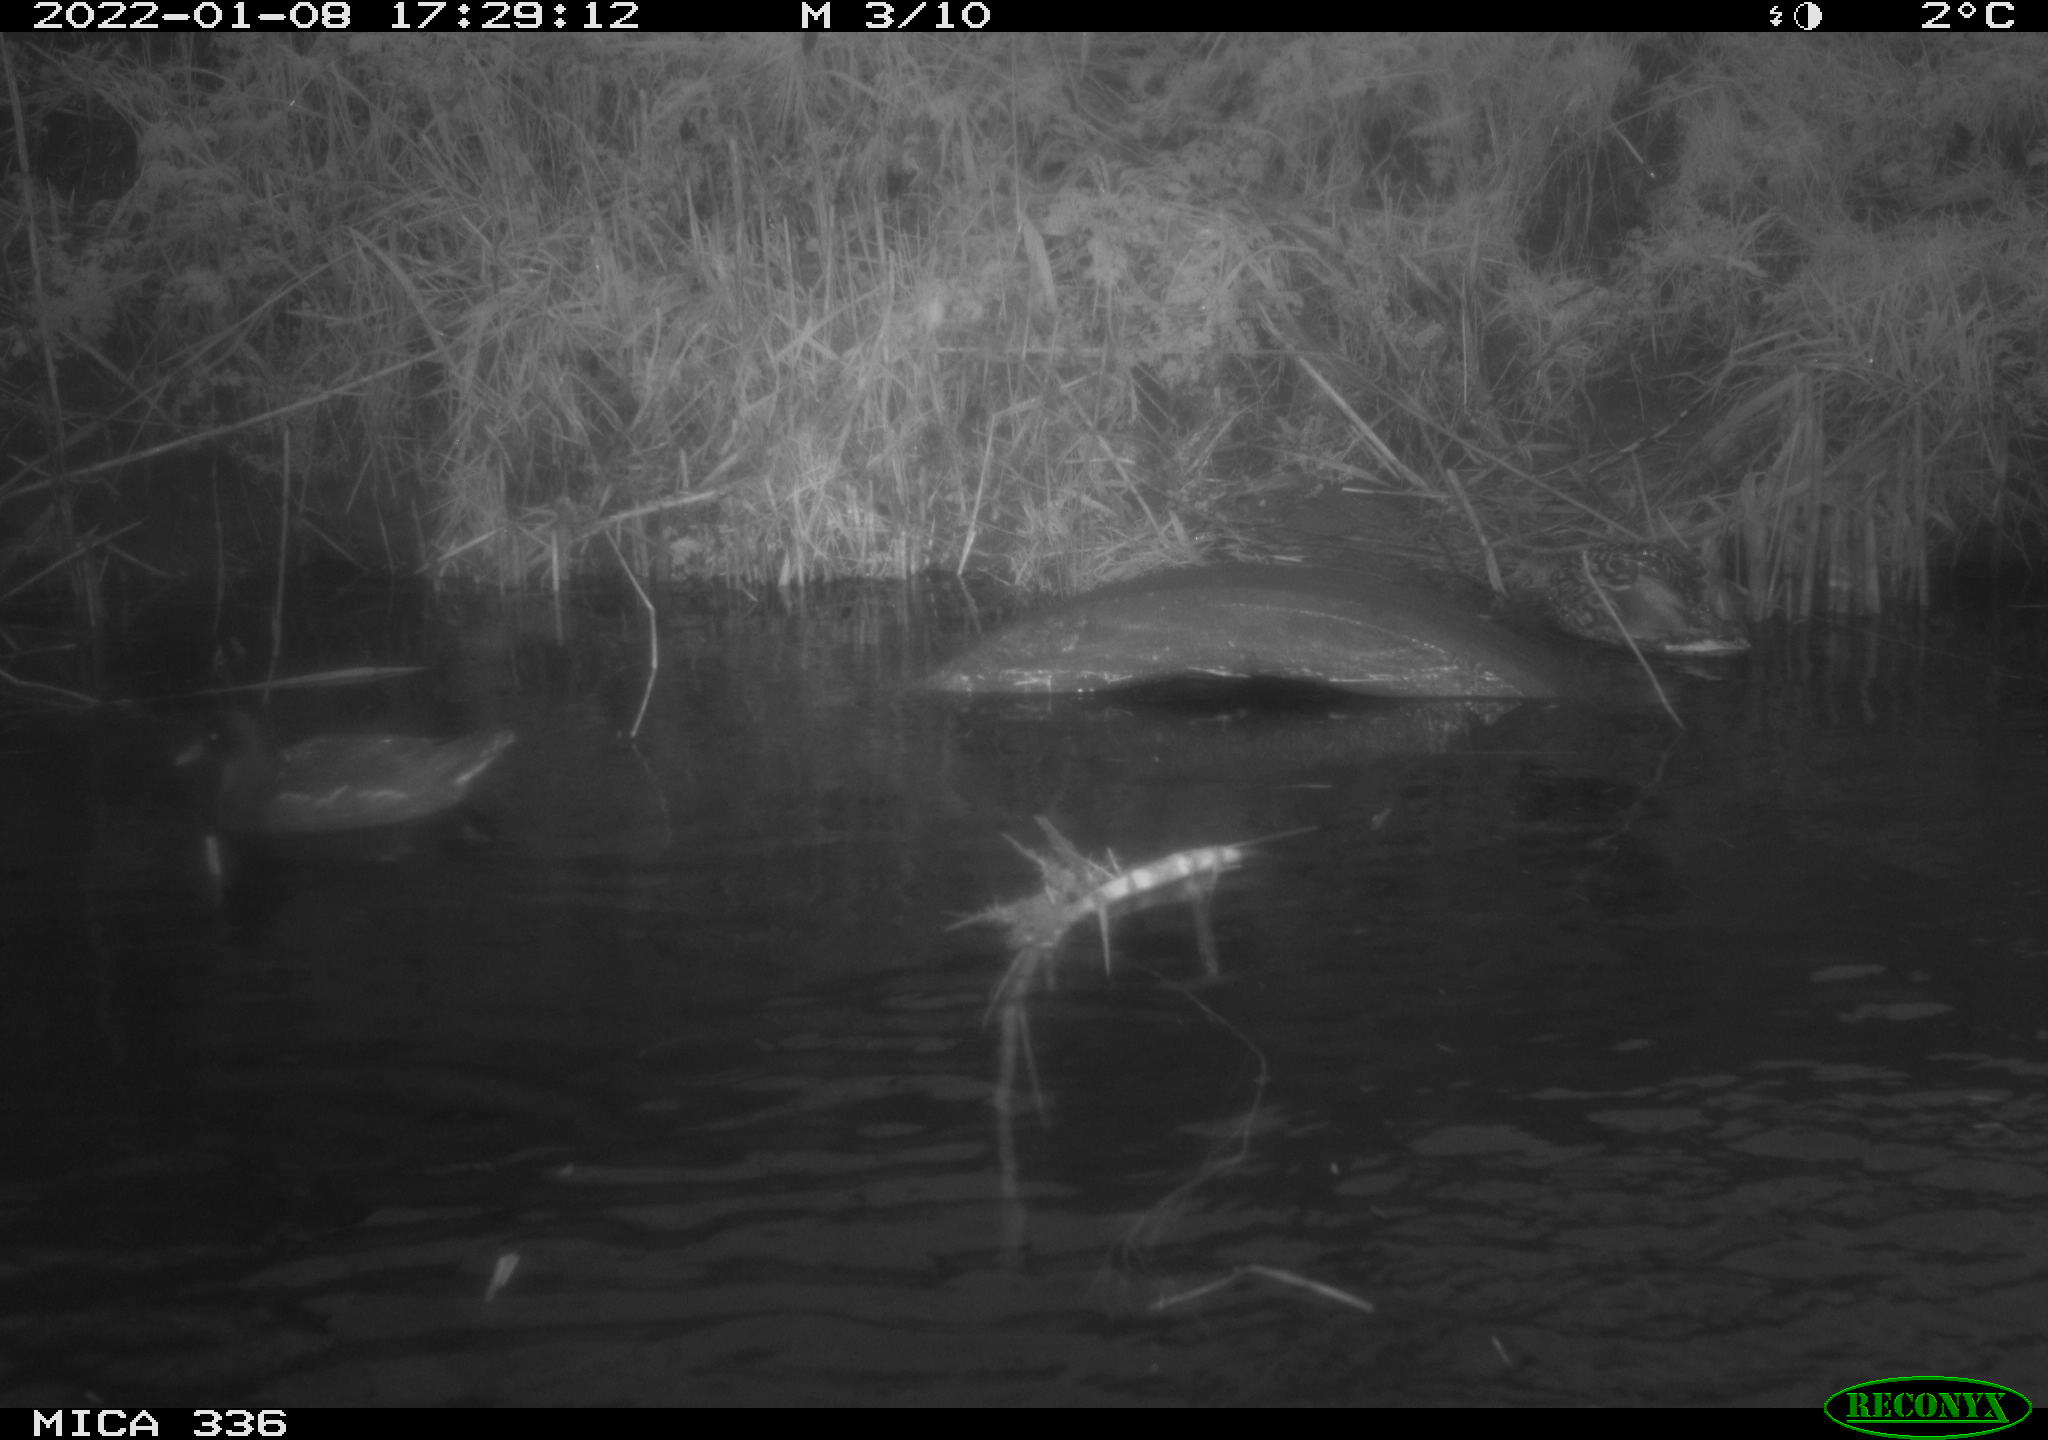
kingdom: Animalia
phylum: Chordata
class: Aves
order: Gruiformes
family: Rallidae
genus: Gallinula
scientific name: Gallinula chloropus
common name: Common moorhen
